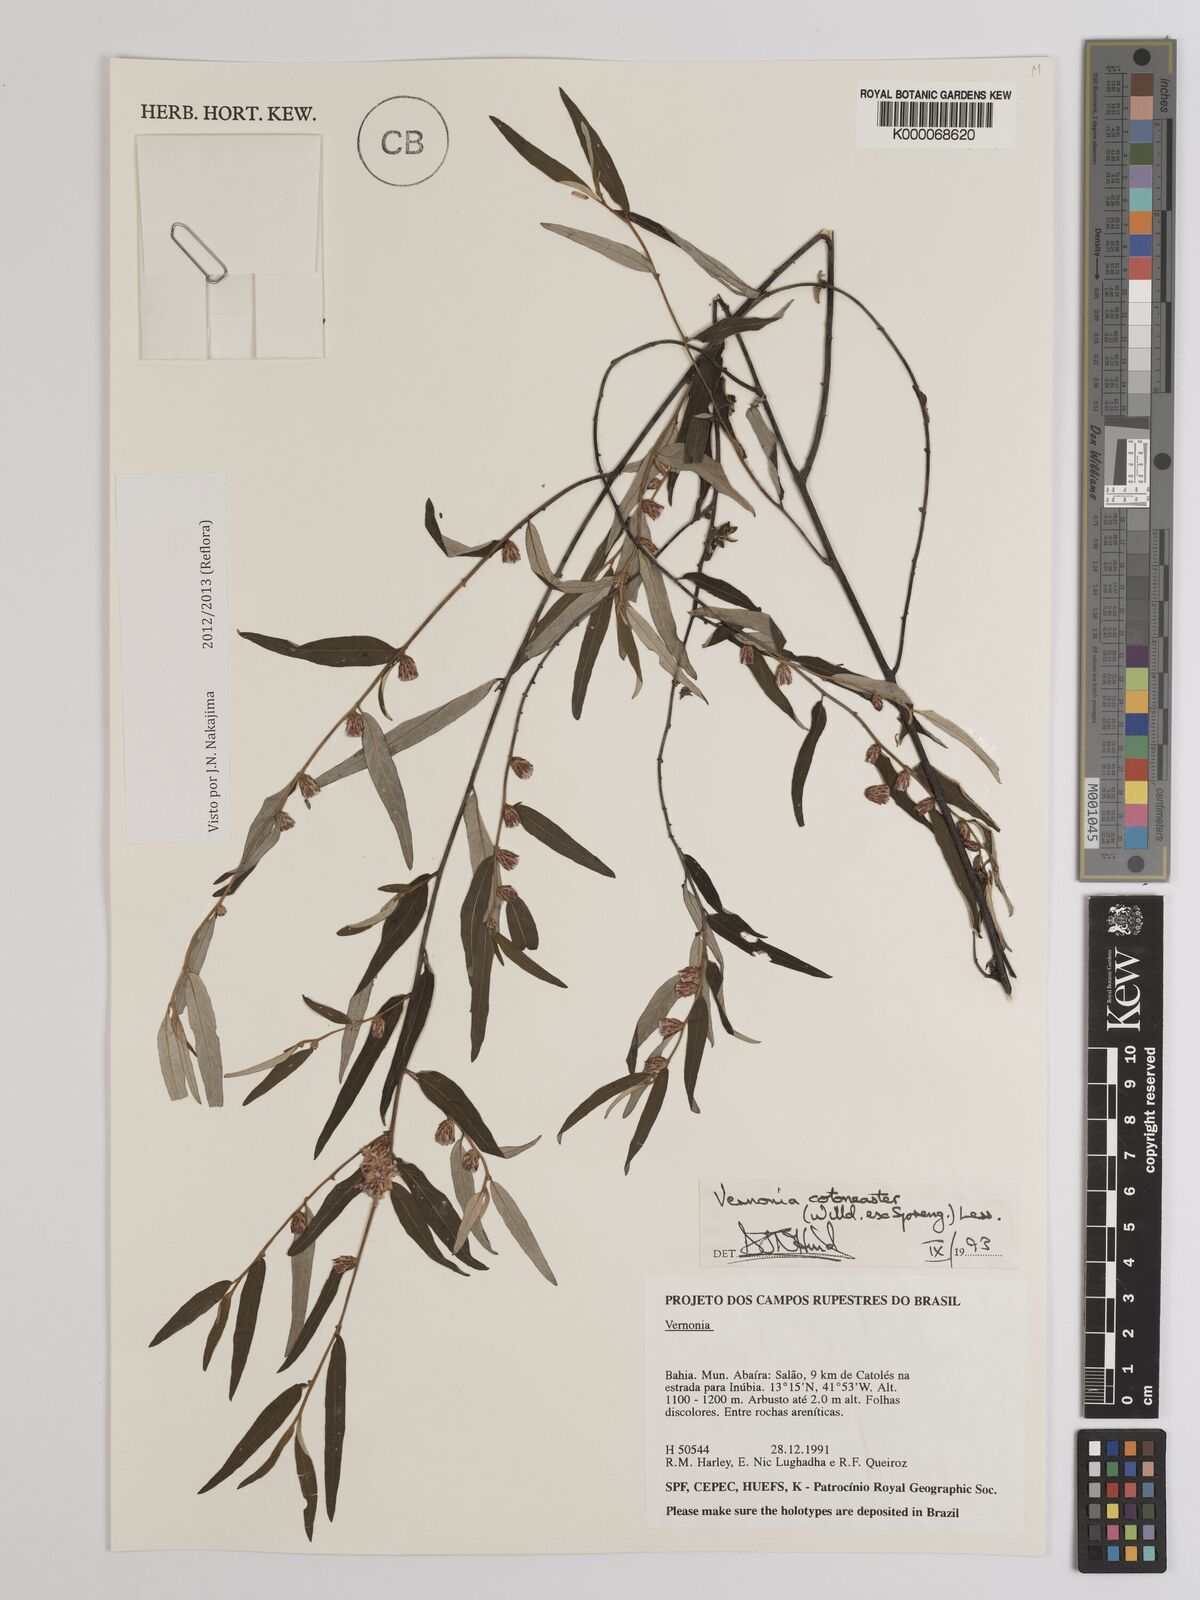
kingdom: Plantae
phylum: Tracheophyta
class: Magnoliopsida
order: Asterales
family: Asteraceae
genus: Lepidaploa
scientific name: Lepidaploa cotoneaster
